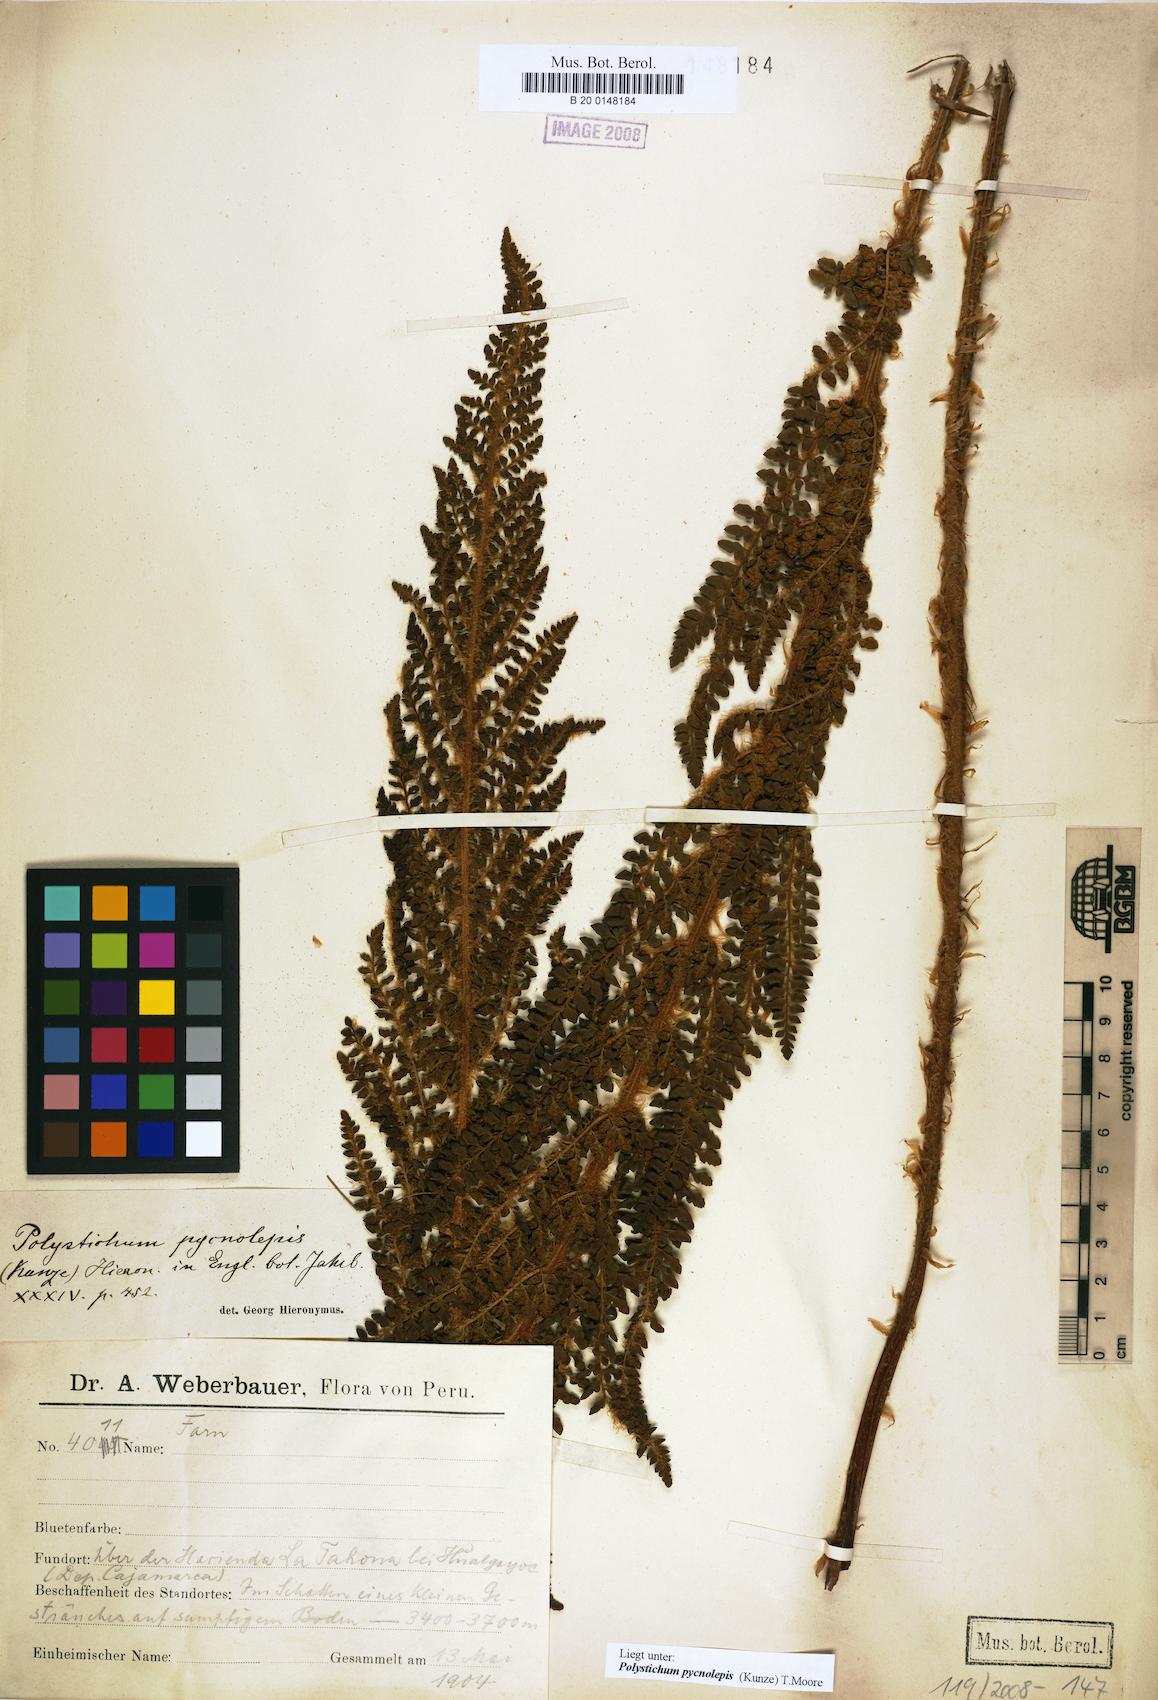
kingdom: Plantae
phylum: Tracheophyta
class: Polypodiopsida
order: Polypodiales
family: Dryopteridaceae
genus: Polystichum
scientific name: Polystichum pycnolepis
